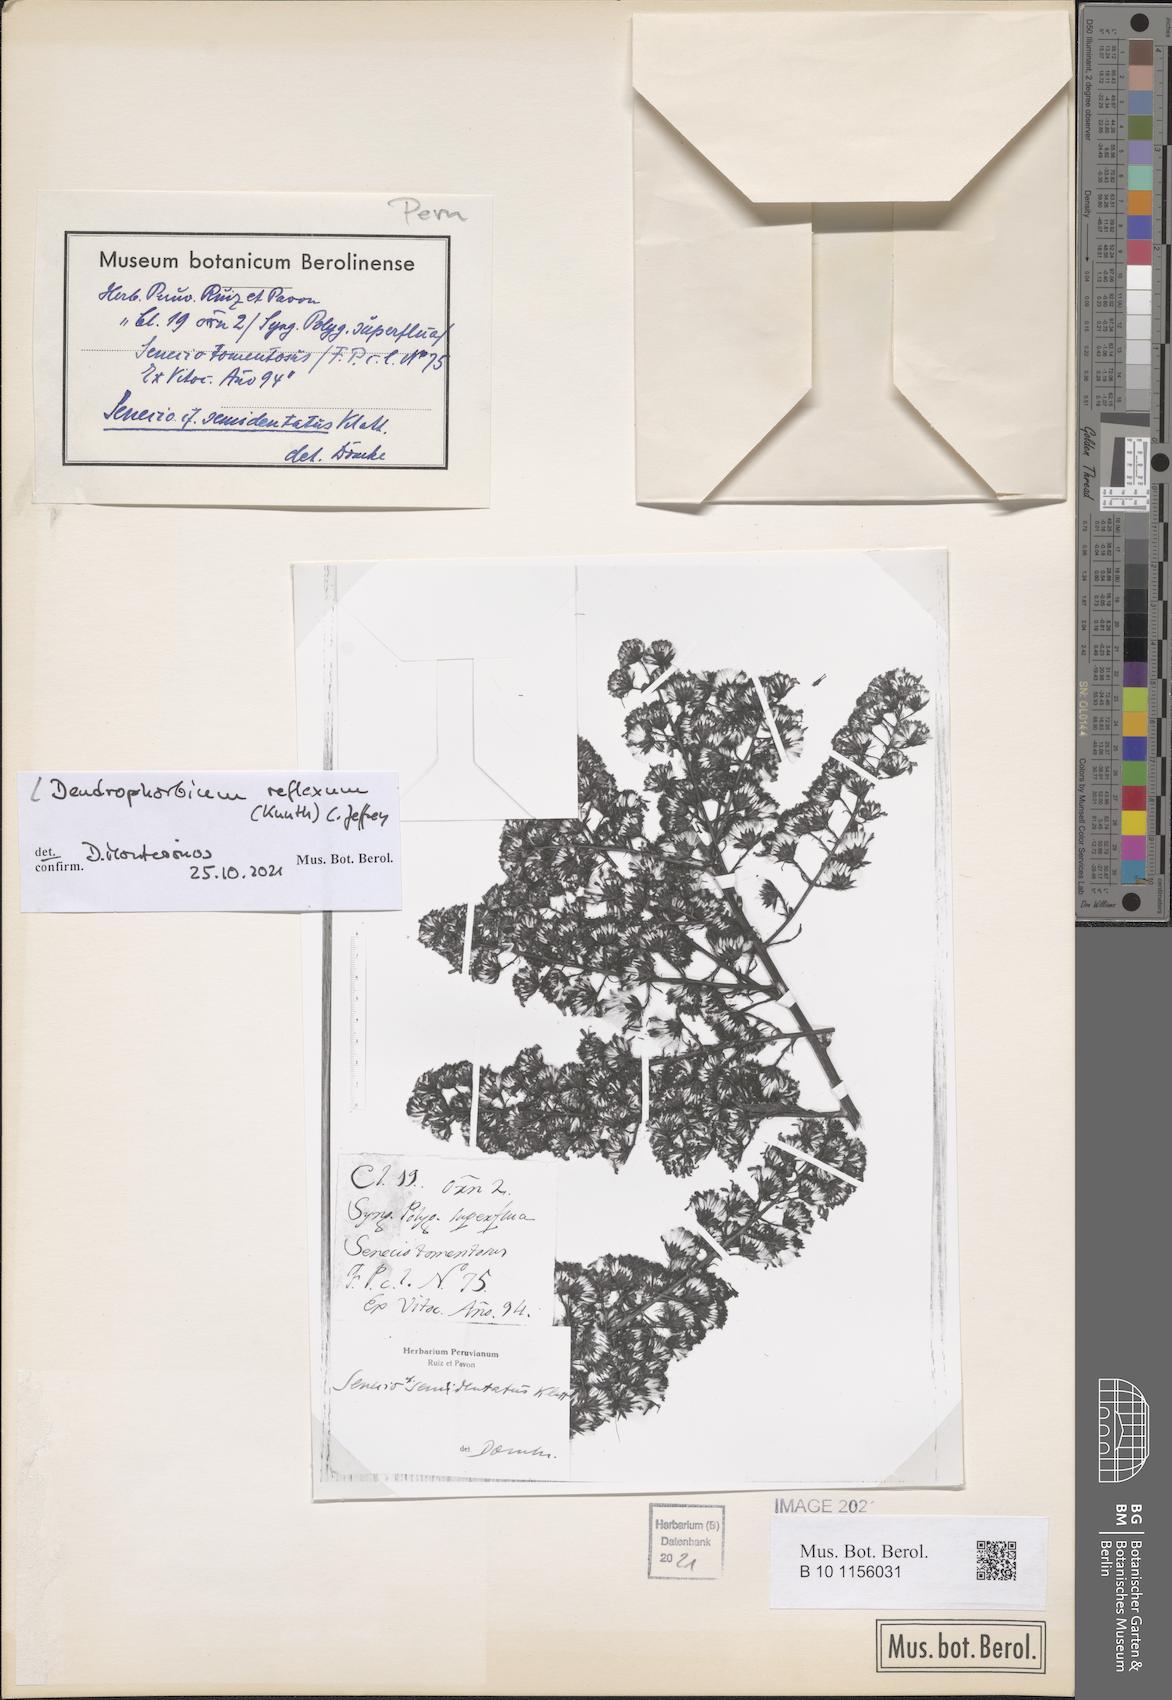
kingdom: Plantae
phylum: Tracheophyta
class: Magnoliopsida
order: Asterales
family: Asteraceae
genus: Dendrophorbium
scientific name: Dendrophorbium reflexum
